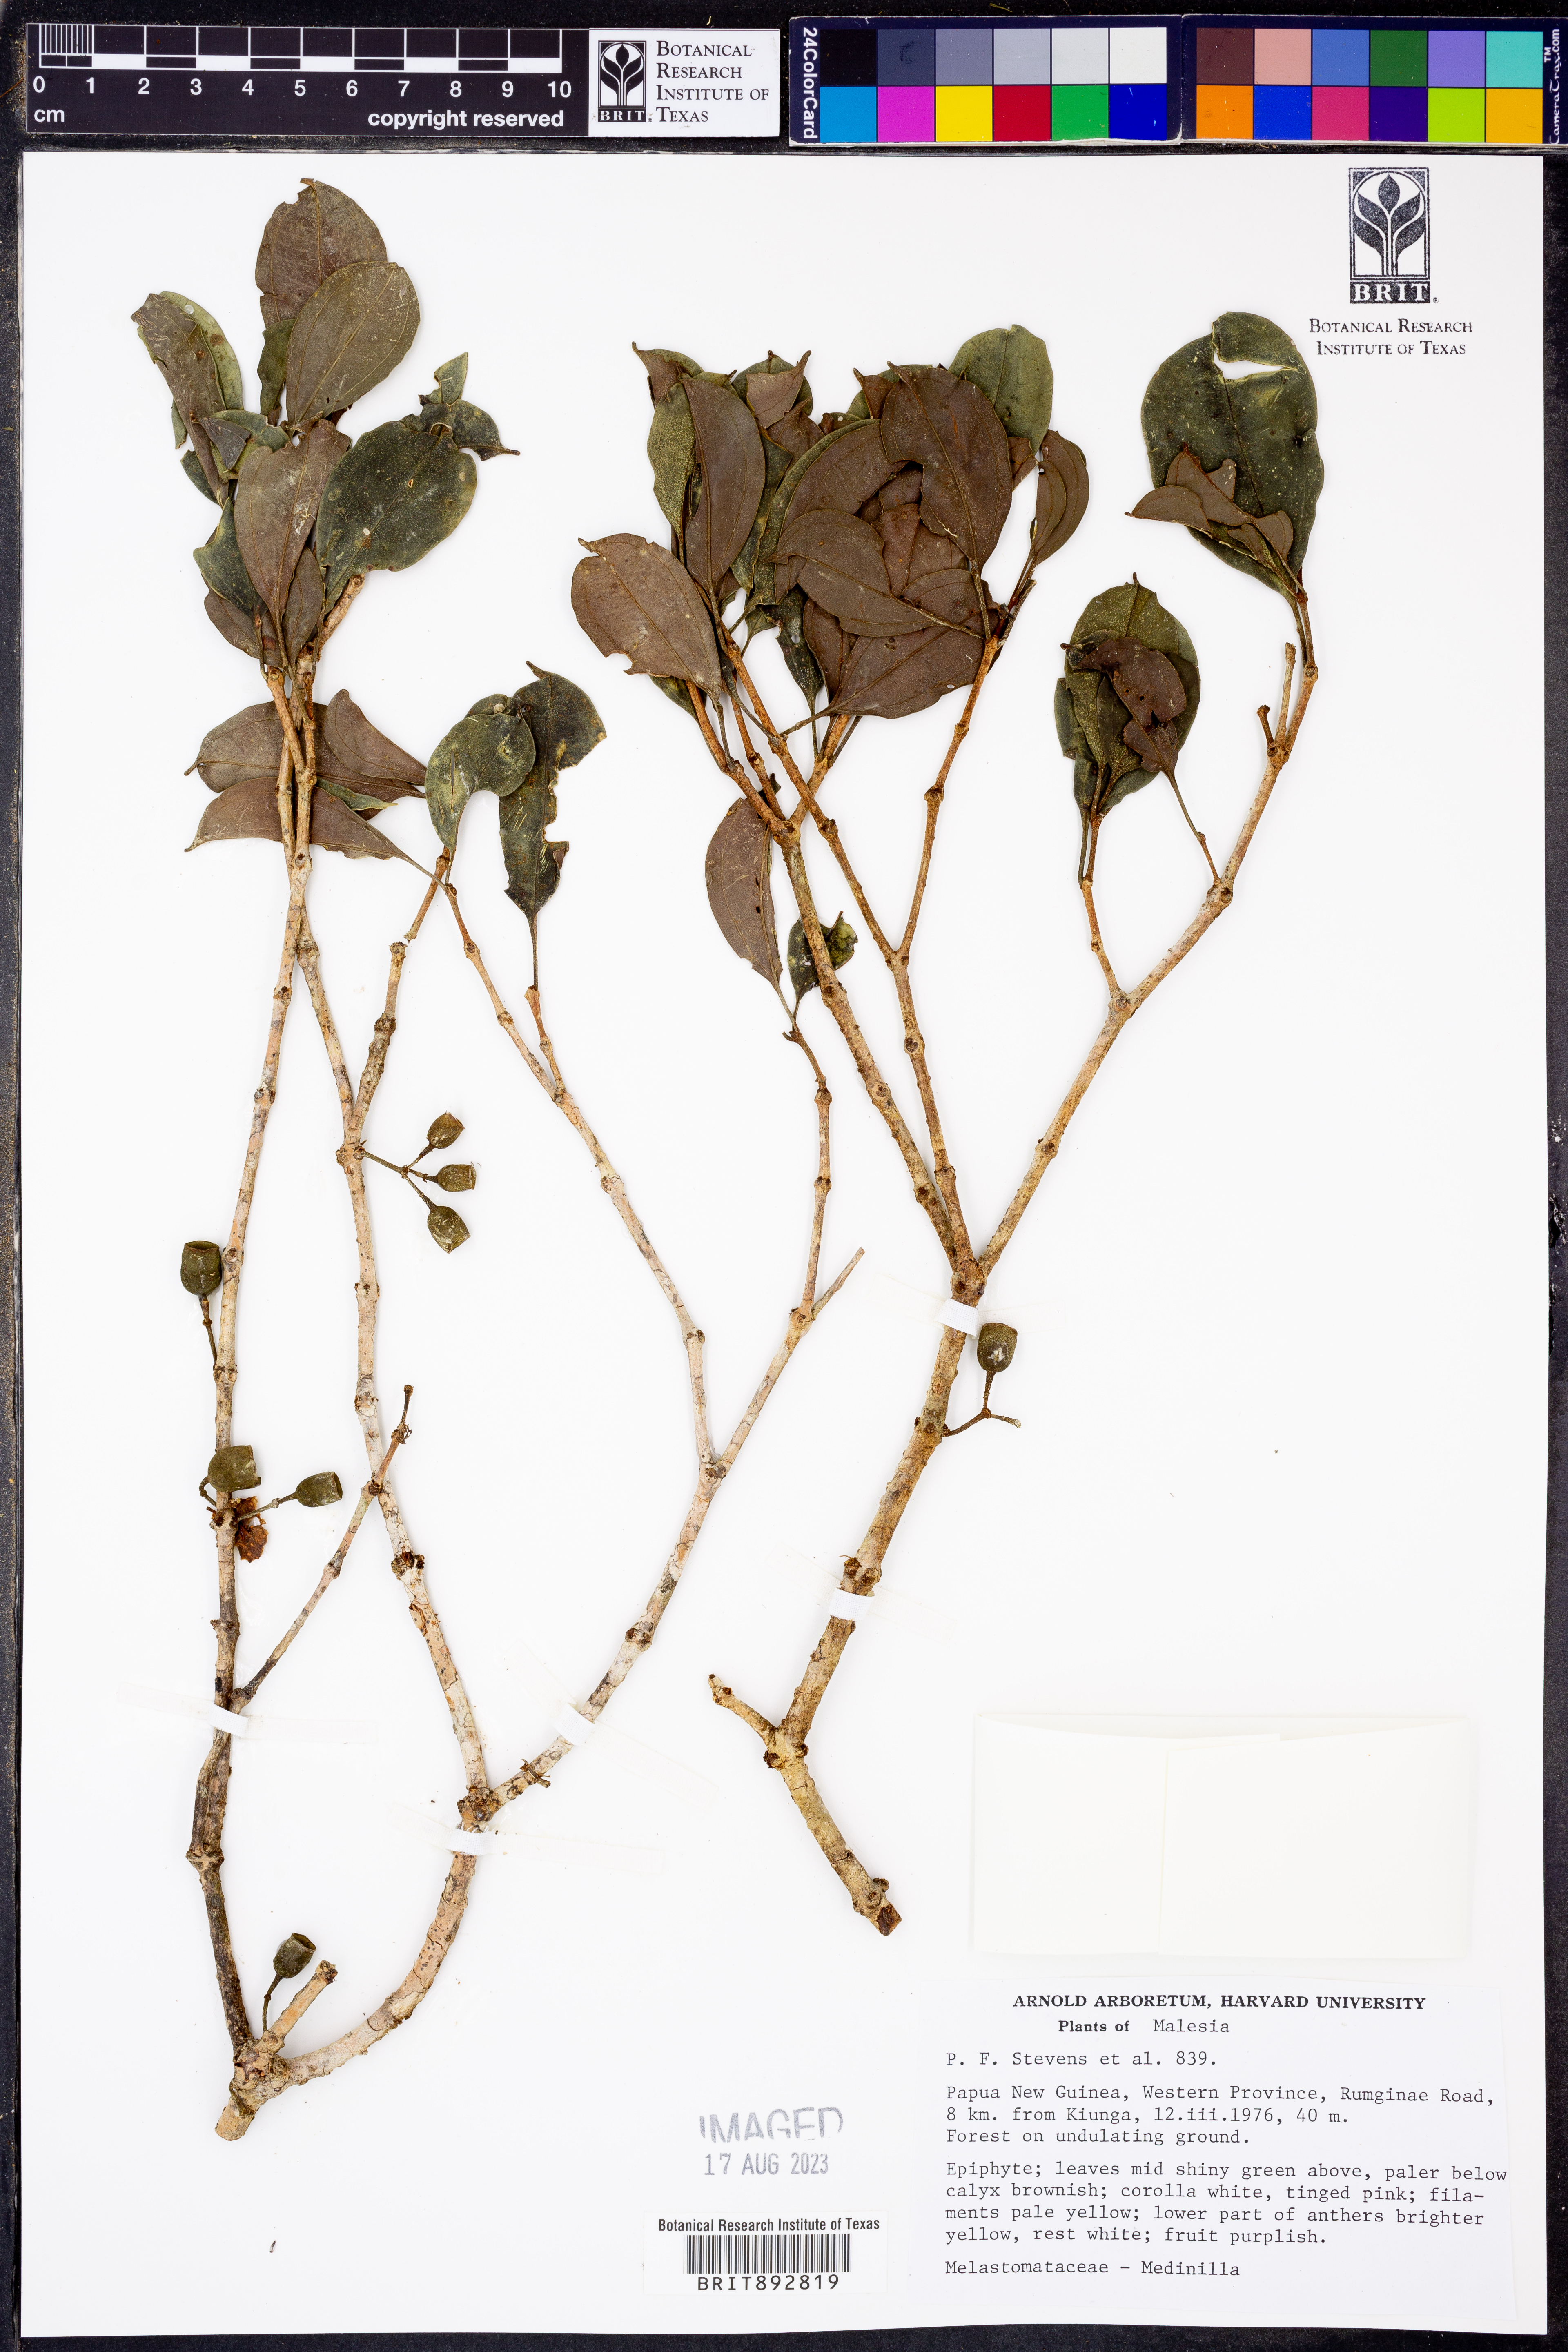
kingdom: Plantae
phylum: Tracheophyta
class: Magnoliopsida
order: Myrtales
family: Melastomataceae
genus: Medinilla
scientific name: Medinilla
